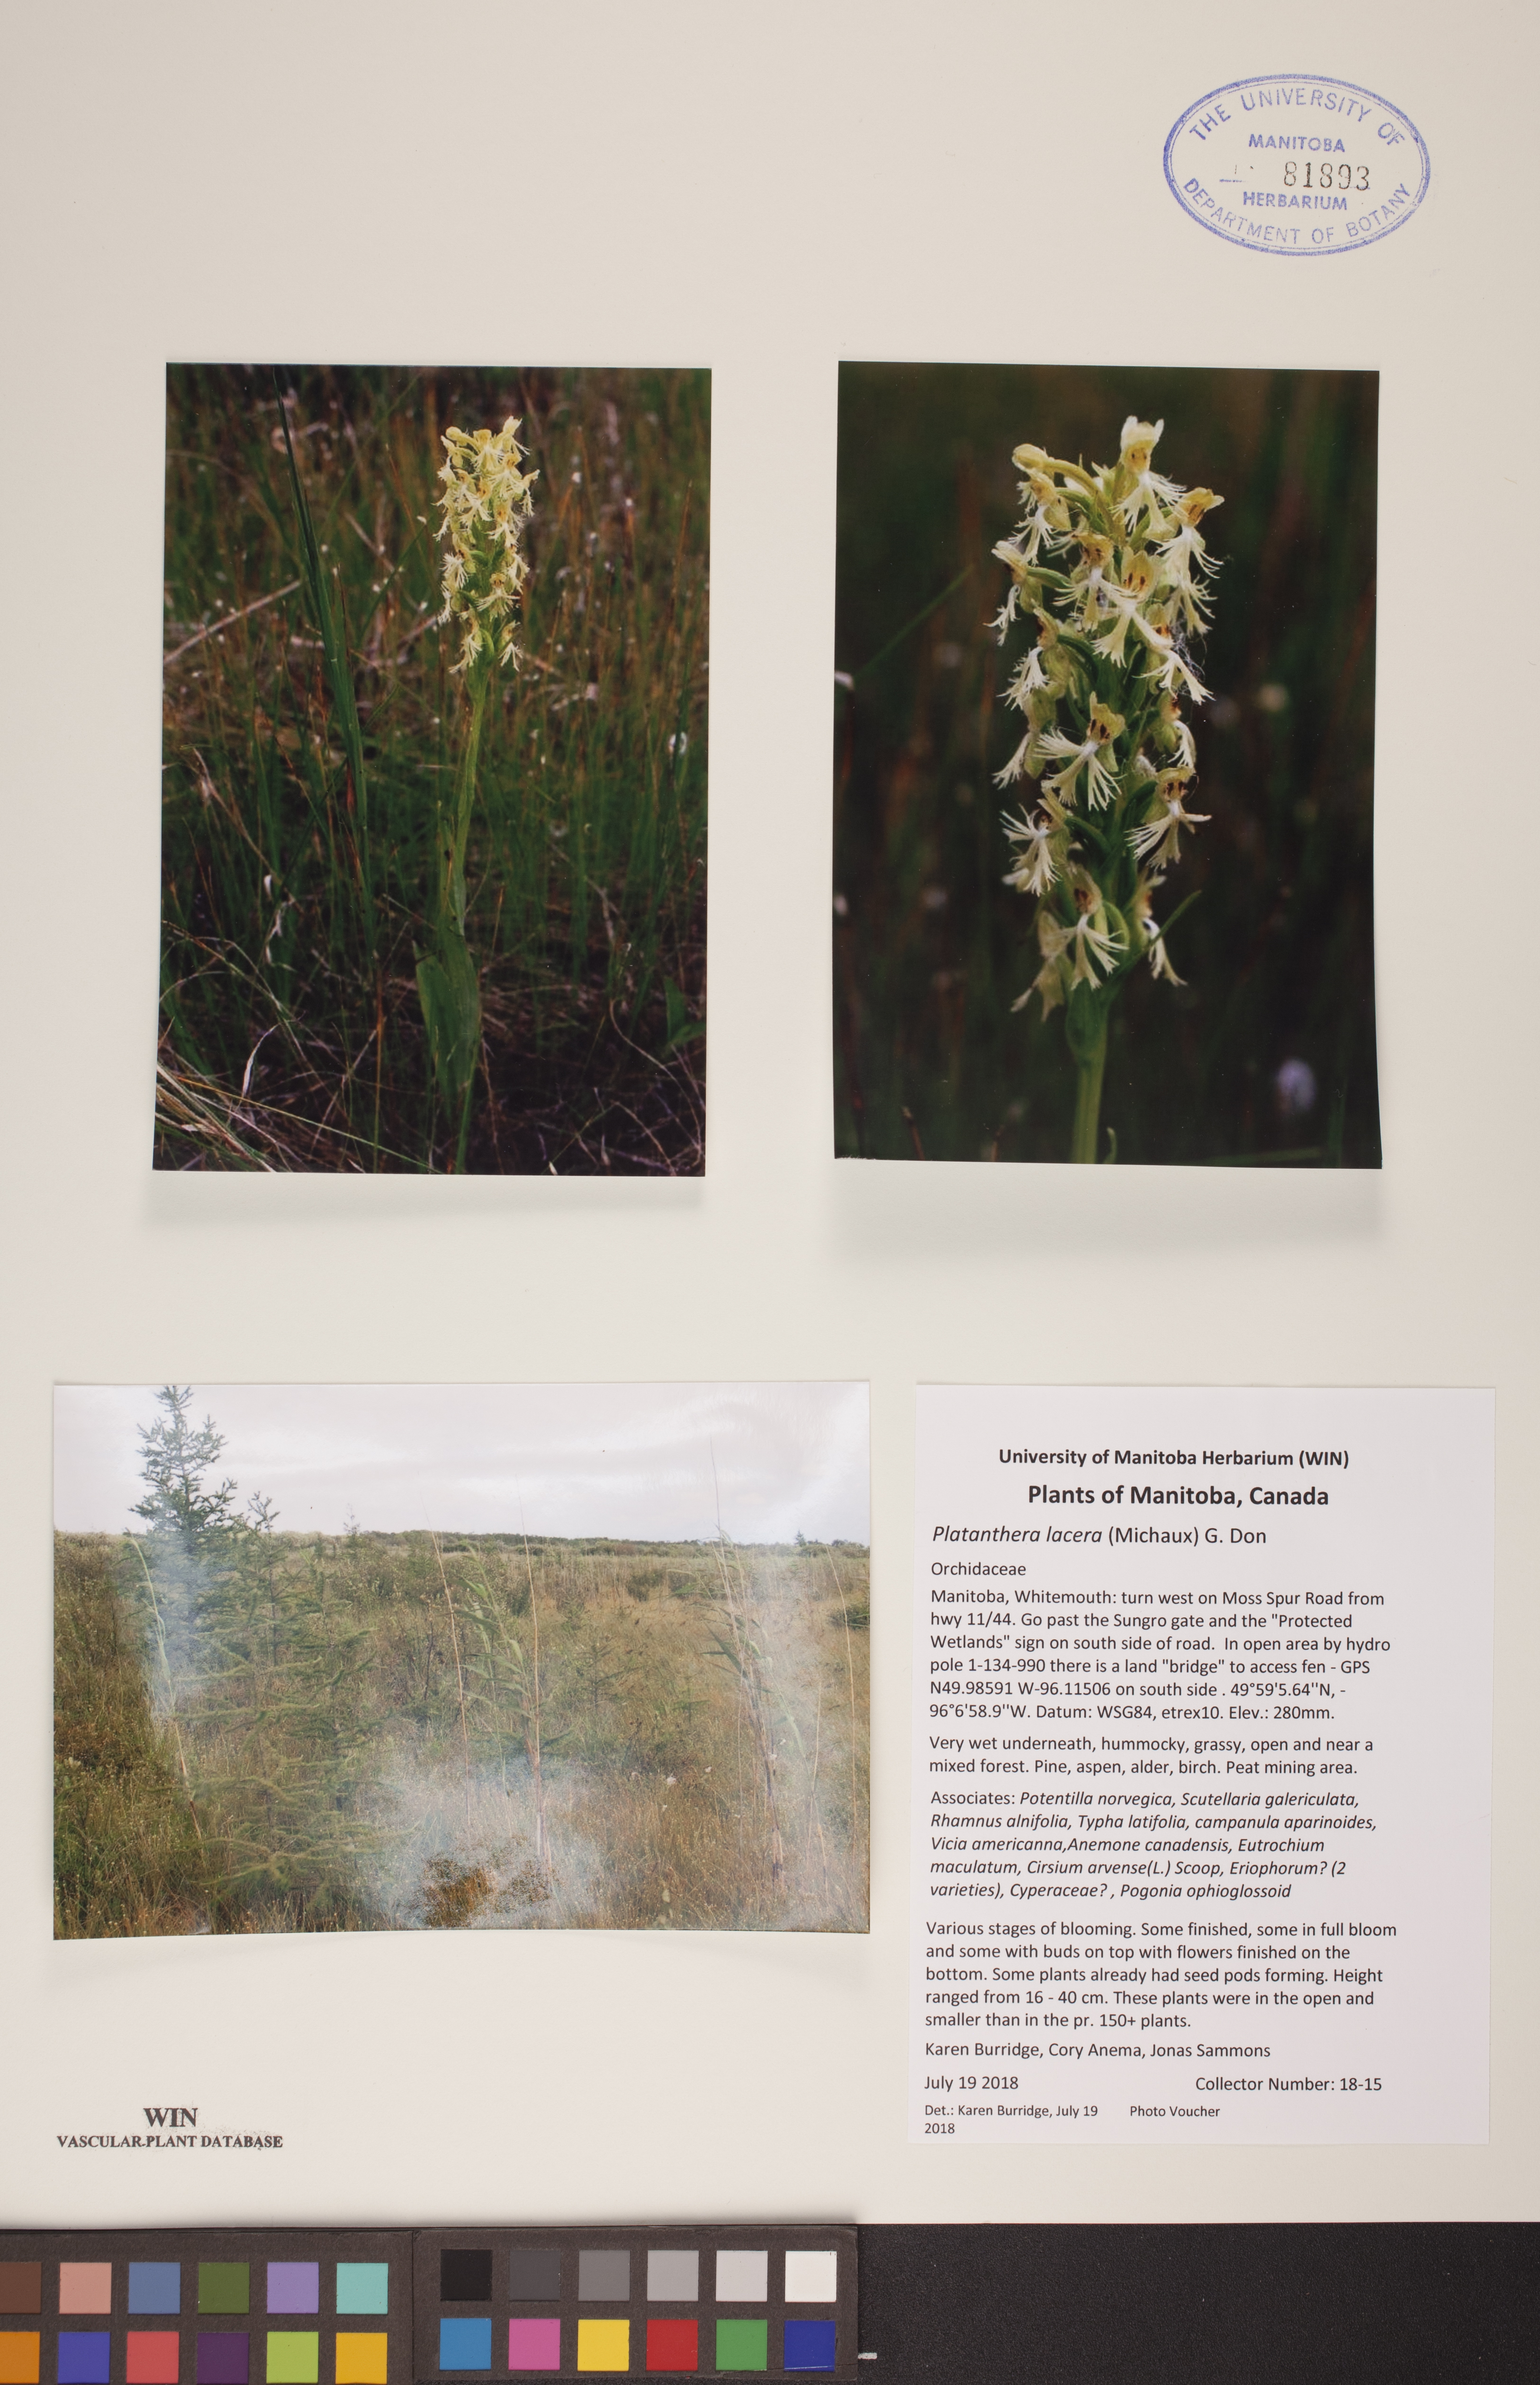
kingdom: Plantae
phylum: Tracheophyta
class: Liliopsida
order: Asparagales
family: Orchidaceae
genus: Platanthera
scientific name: Platanthera lacera
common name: Green fringed orchid
